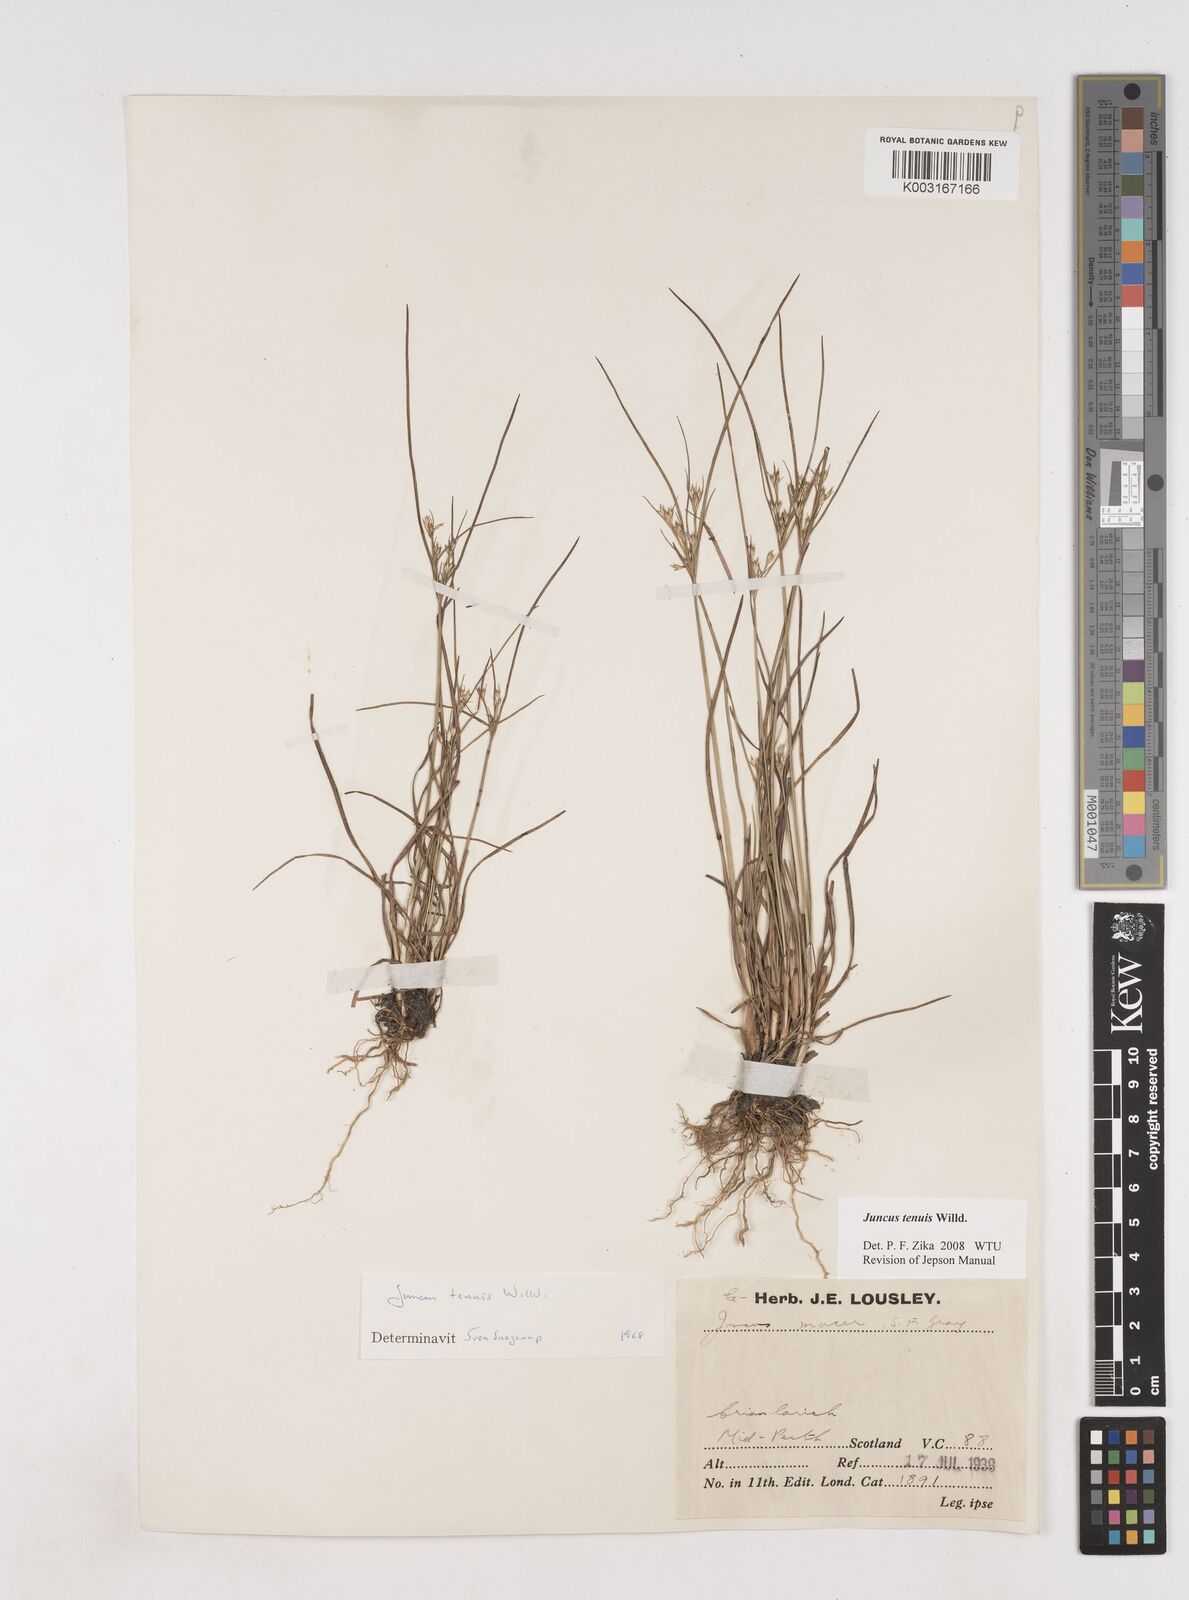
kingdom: Plantae
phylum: Tracheophyta
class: Liliopsida
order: Poales
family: Juncaceae
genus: Juncus
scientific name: Juncus tenuis
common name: Slender rush
